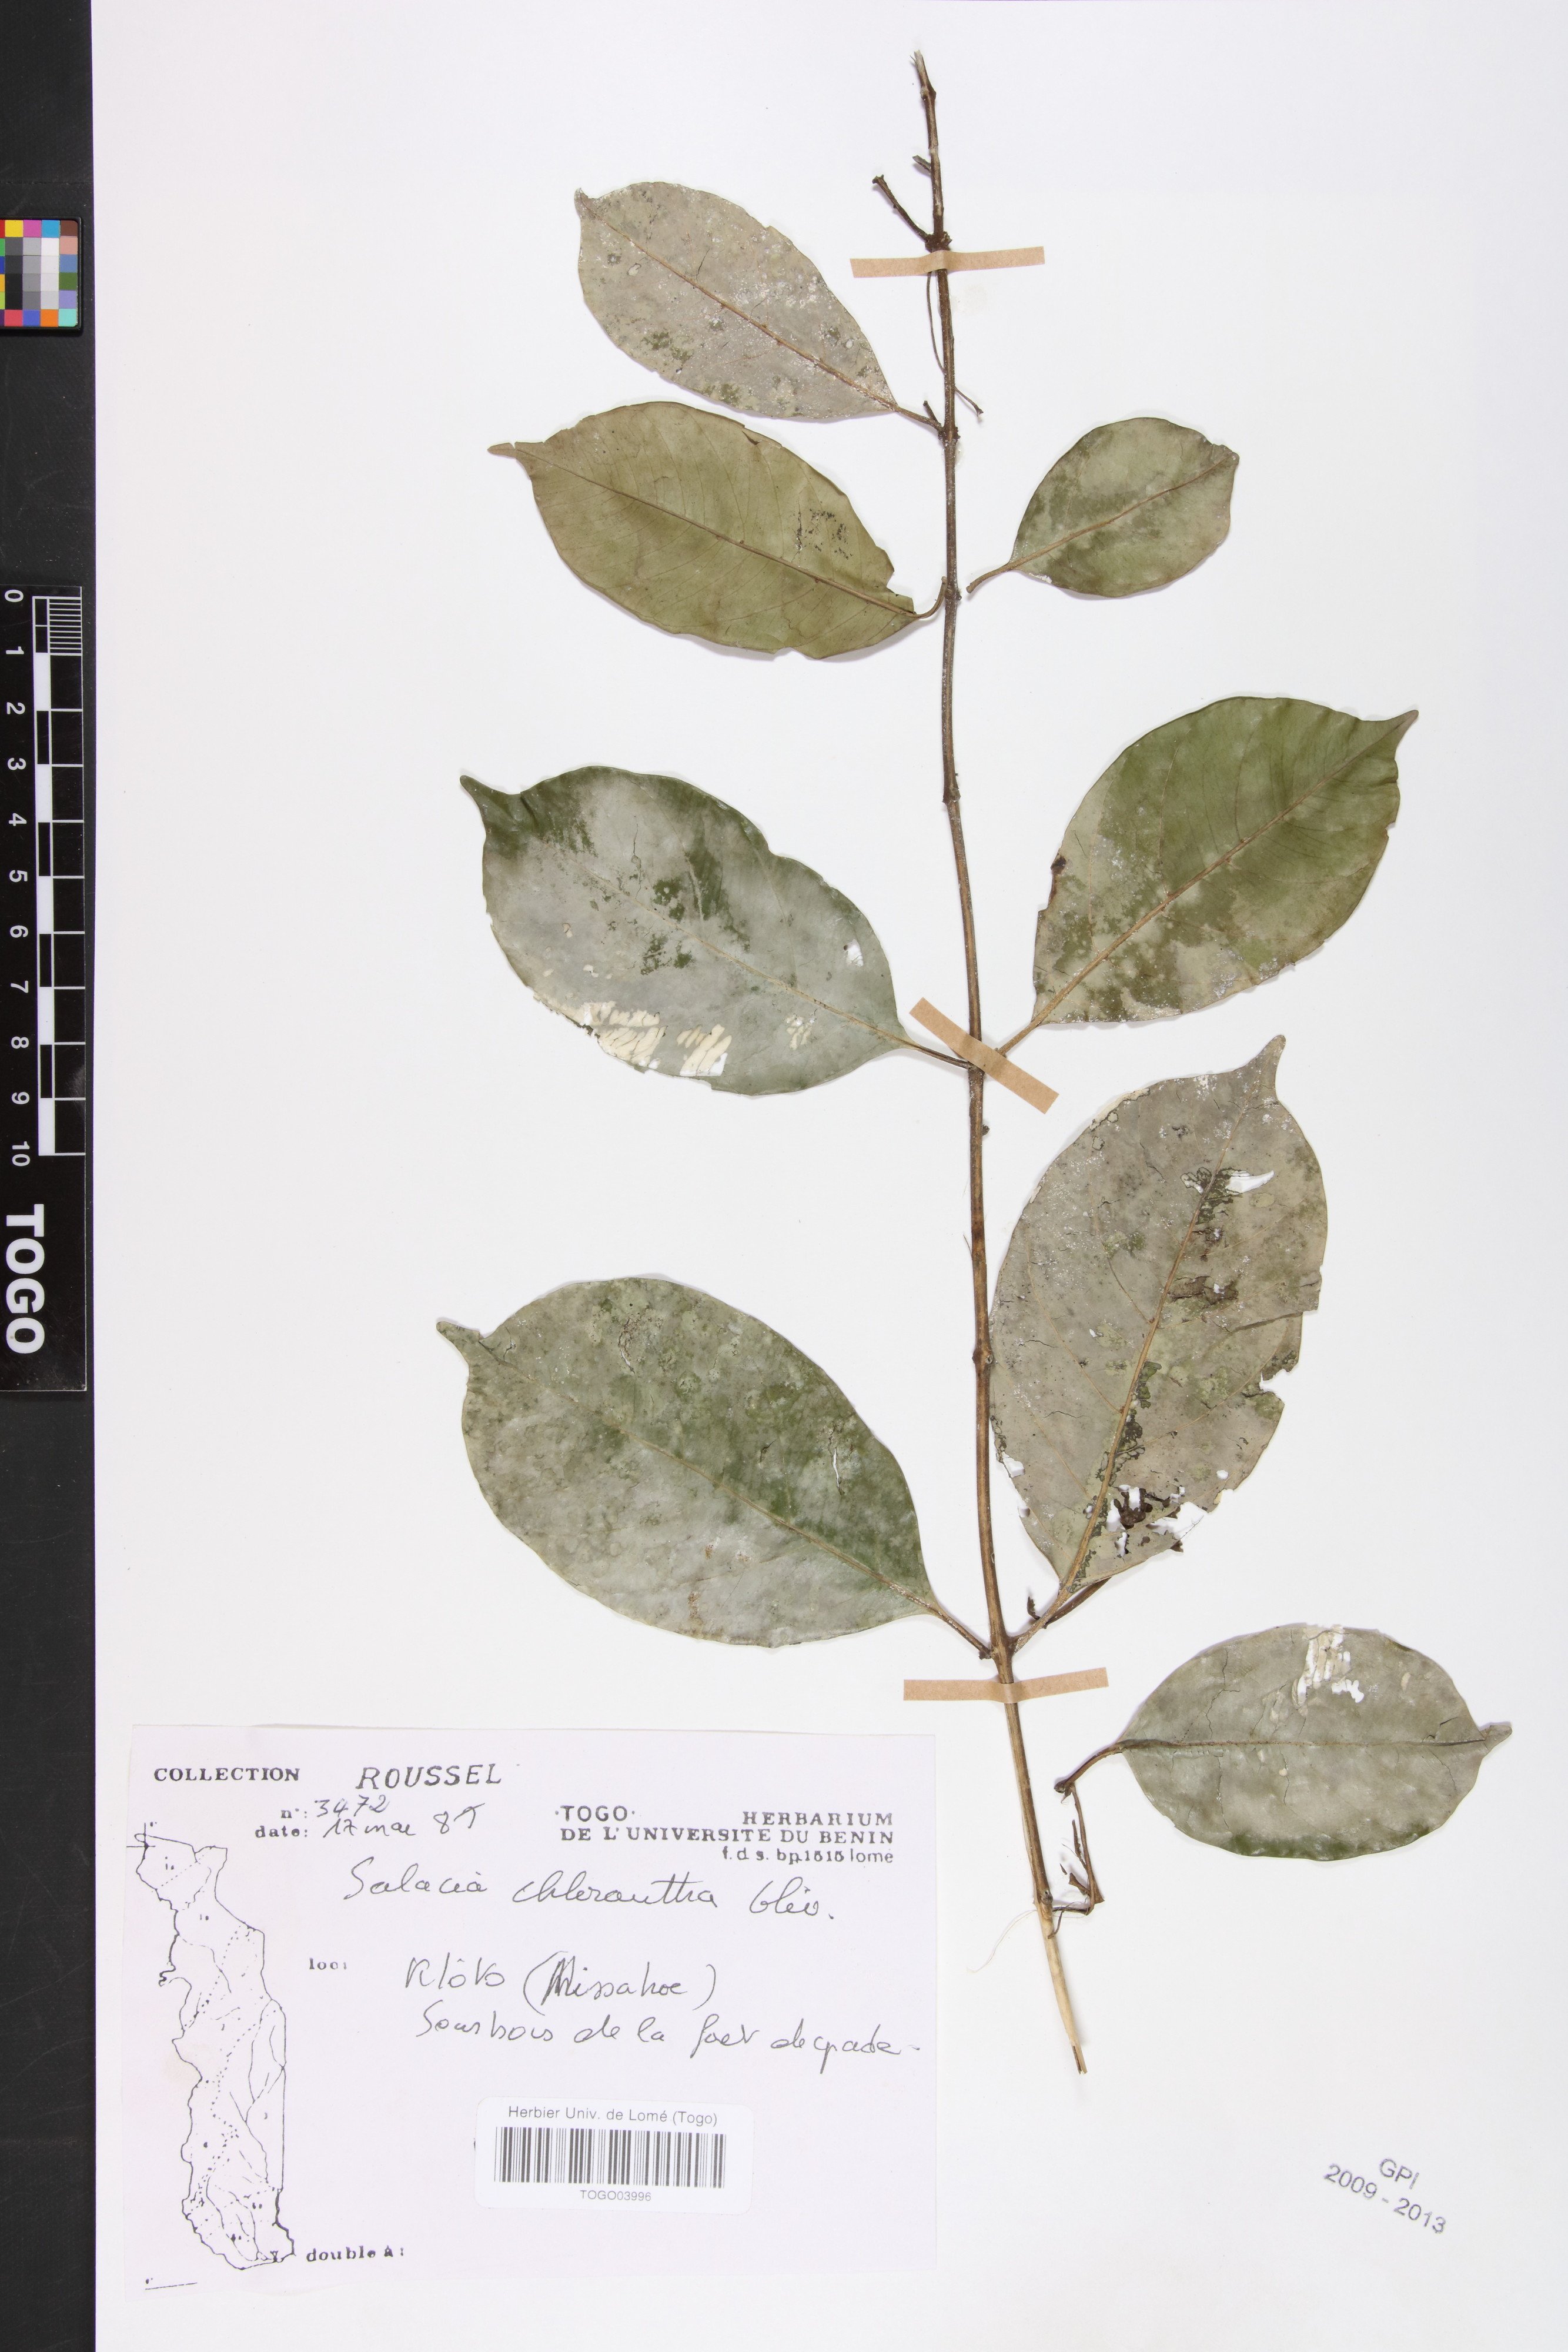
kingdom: Plantae
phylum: Tracheophyta
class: Magnoliopsida
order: Celastrales
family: Celastraceae
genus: Salacia
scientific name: Salacia chlorantha
